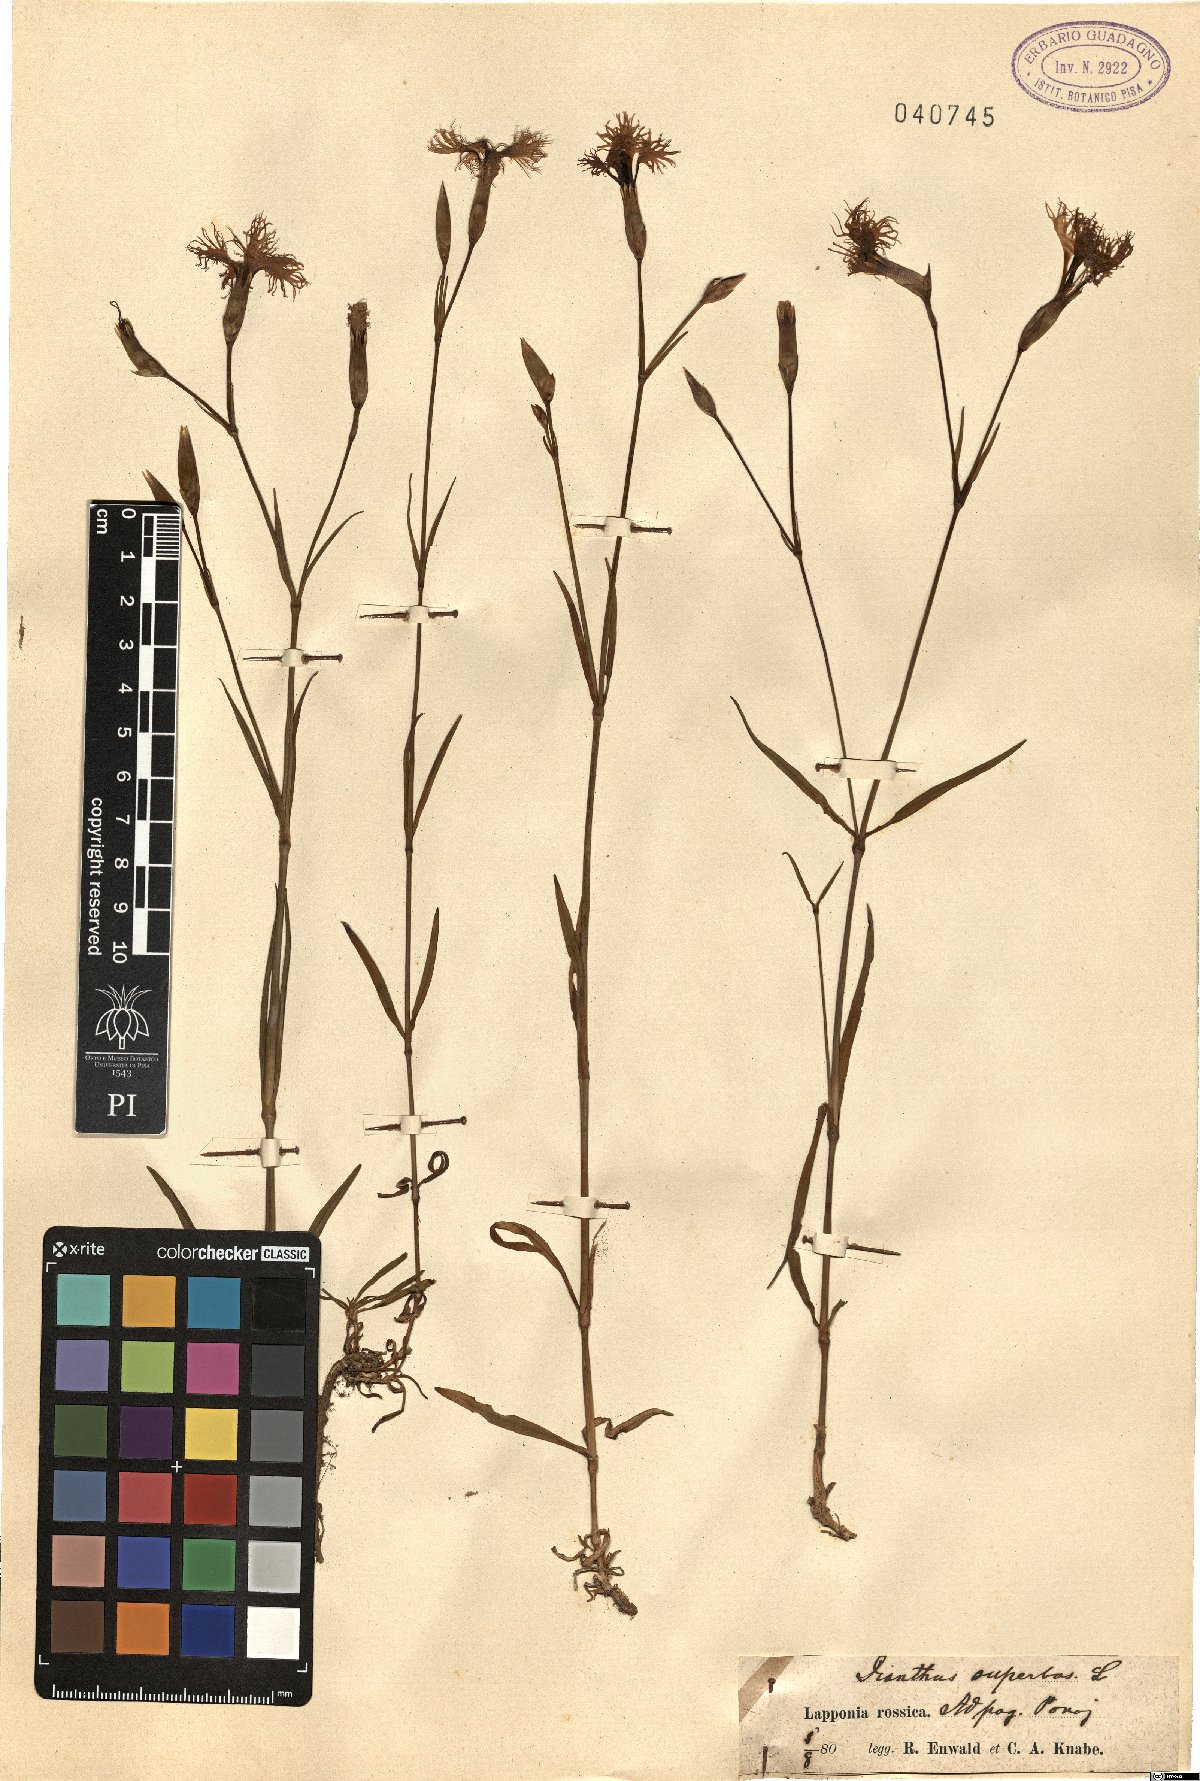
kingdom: Plantae
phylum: Tracheophyta
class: Magnoliopsida
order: Caryophyllales
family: Caryophyllaceae
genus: Dianthus
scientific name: Dianthus superbus
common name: Fringed pink
